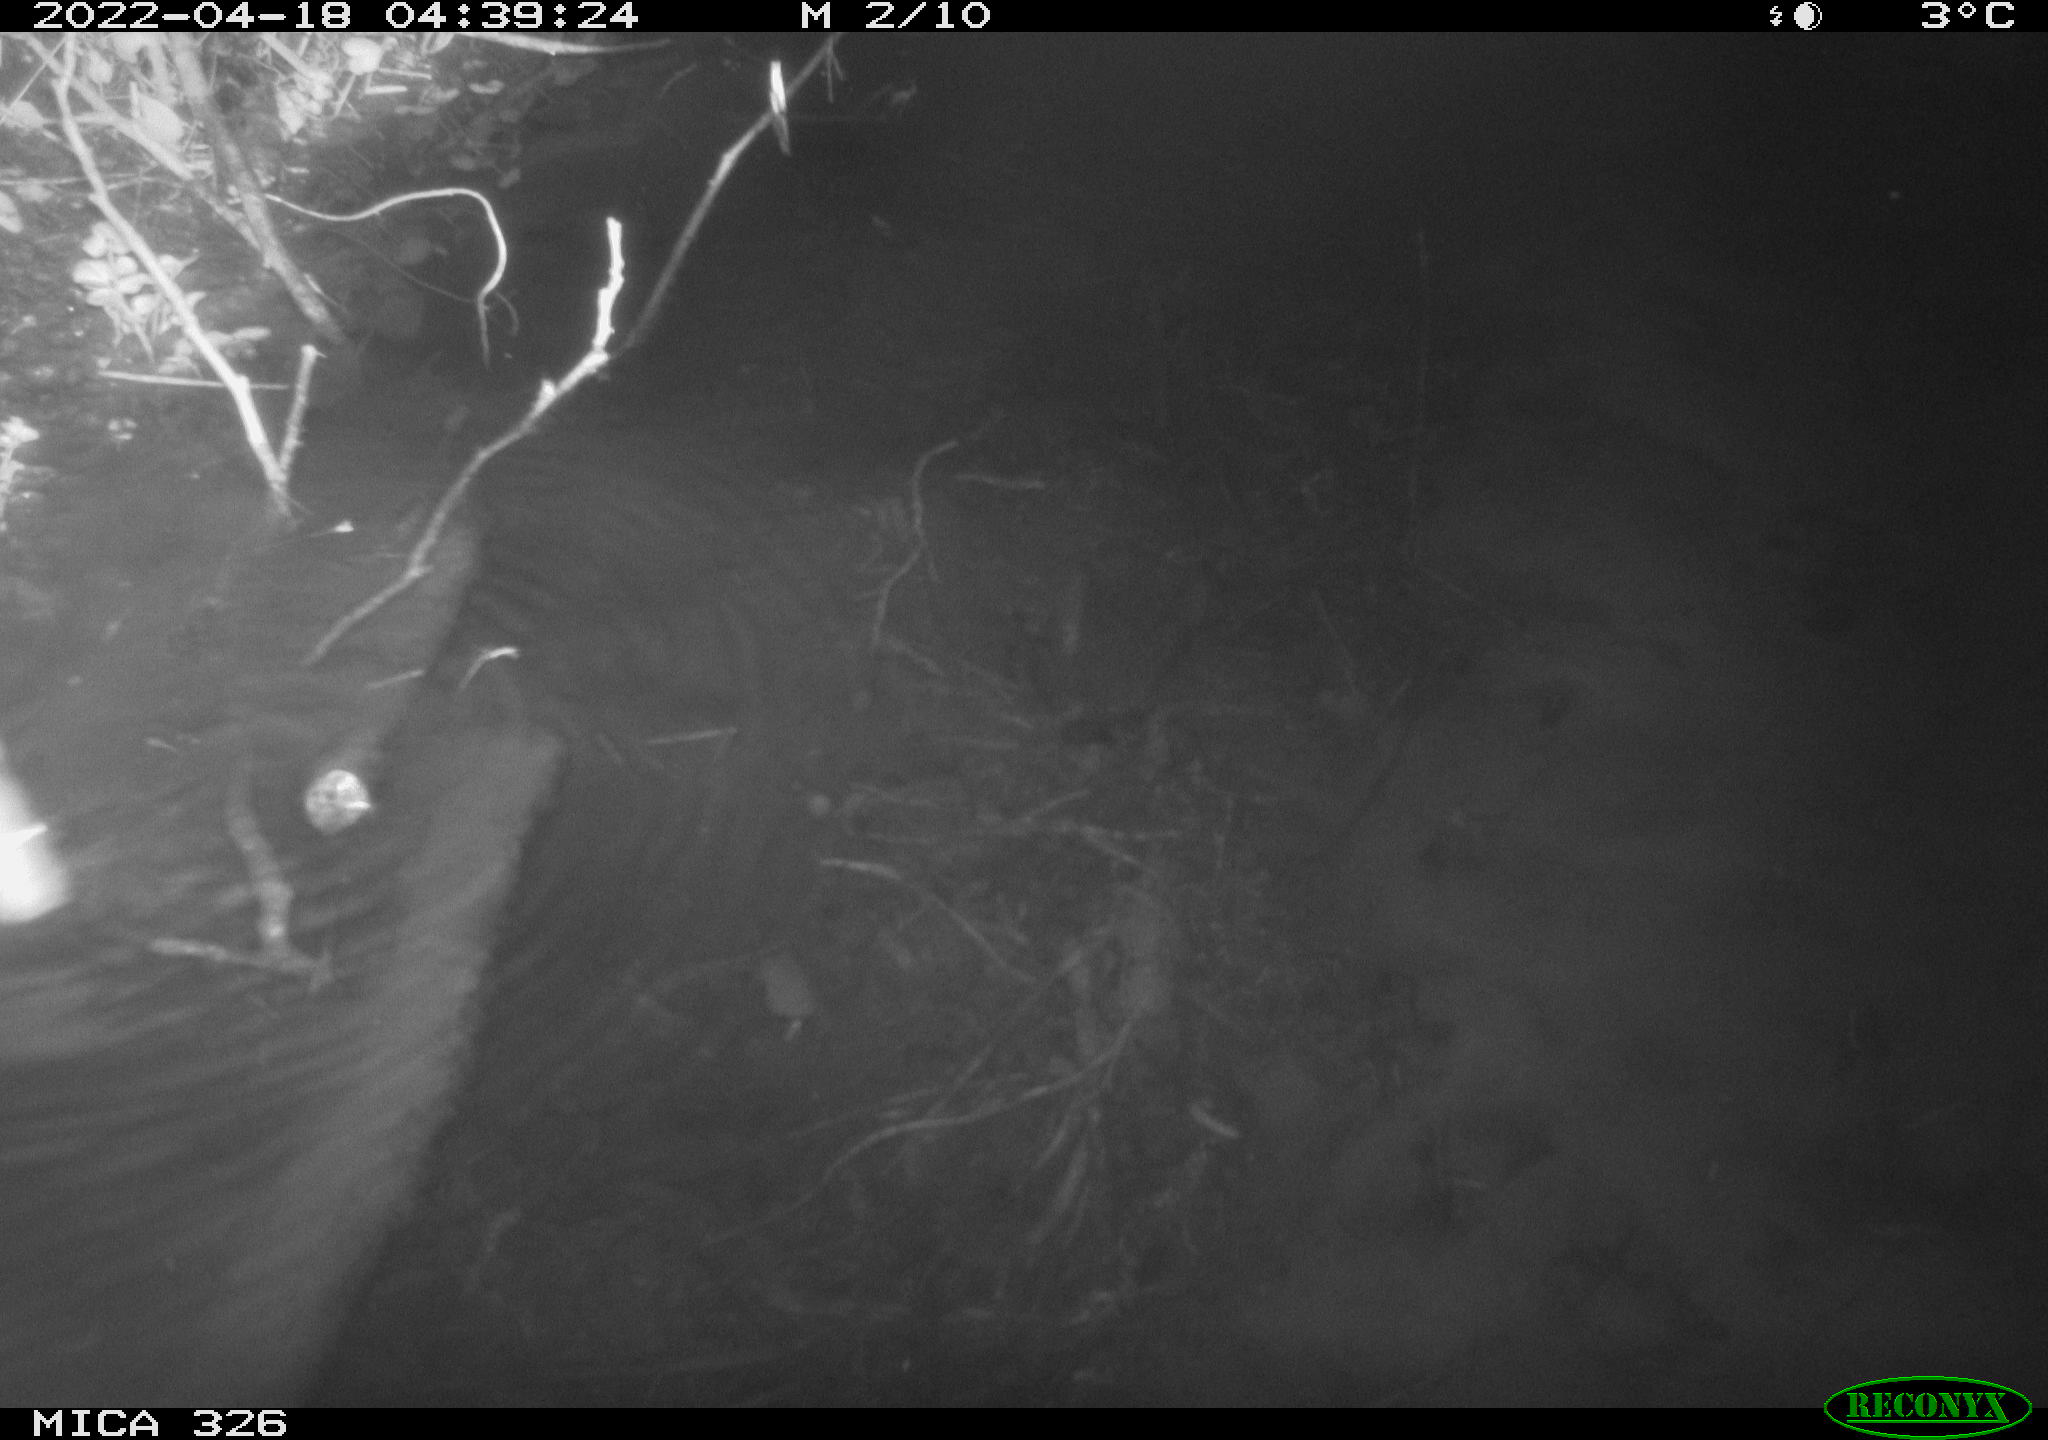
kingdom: Animalia
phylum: Chordata
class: Mammalia
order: Rodentia
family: Muridae
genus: Rattus
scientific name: Rattus norvegicus
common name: Brown rat
